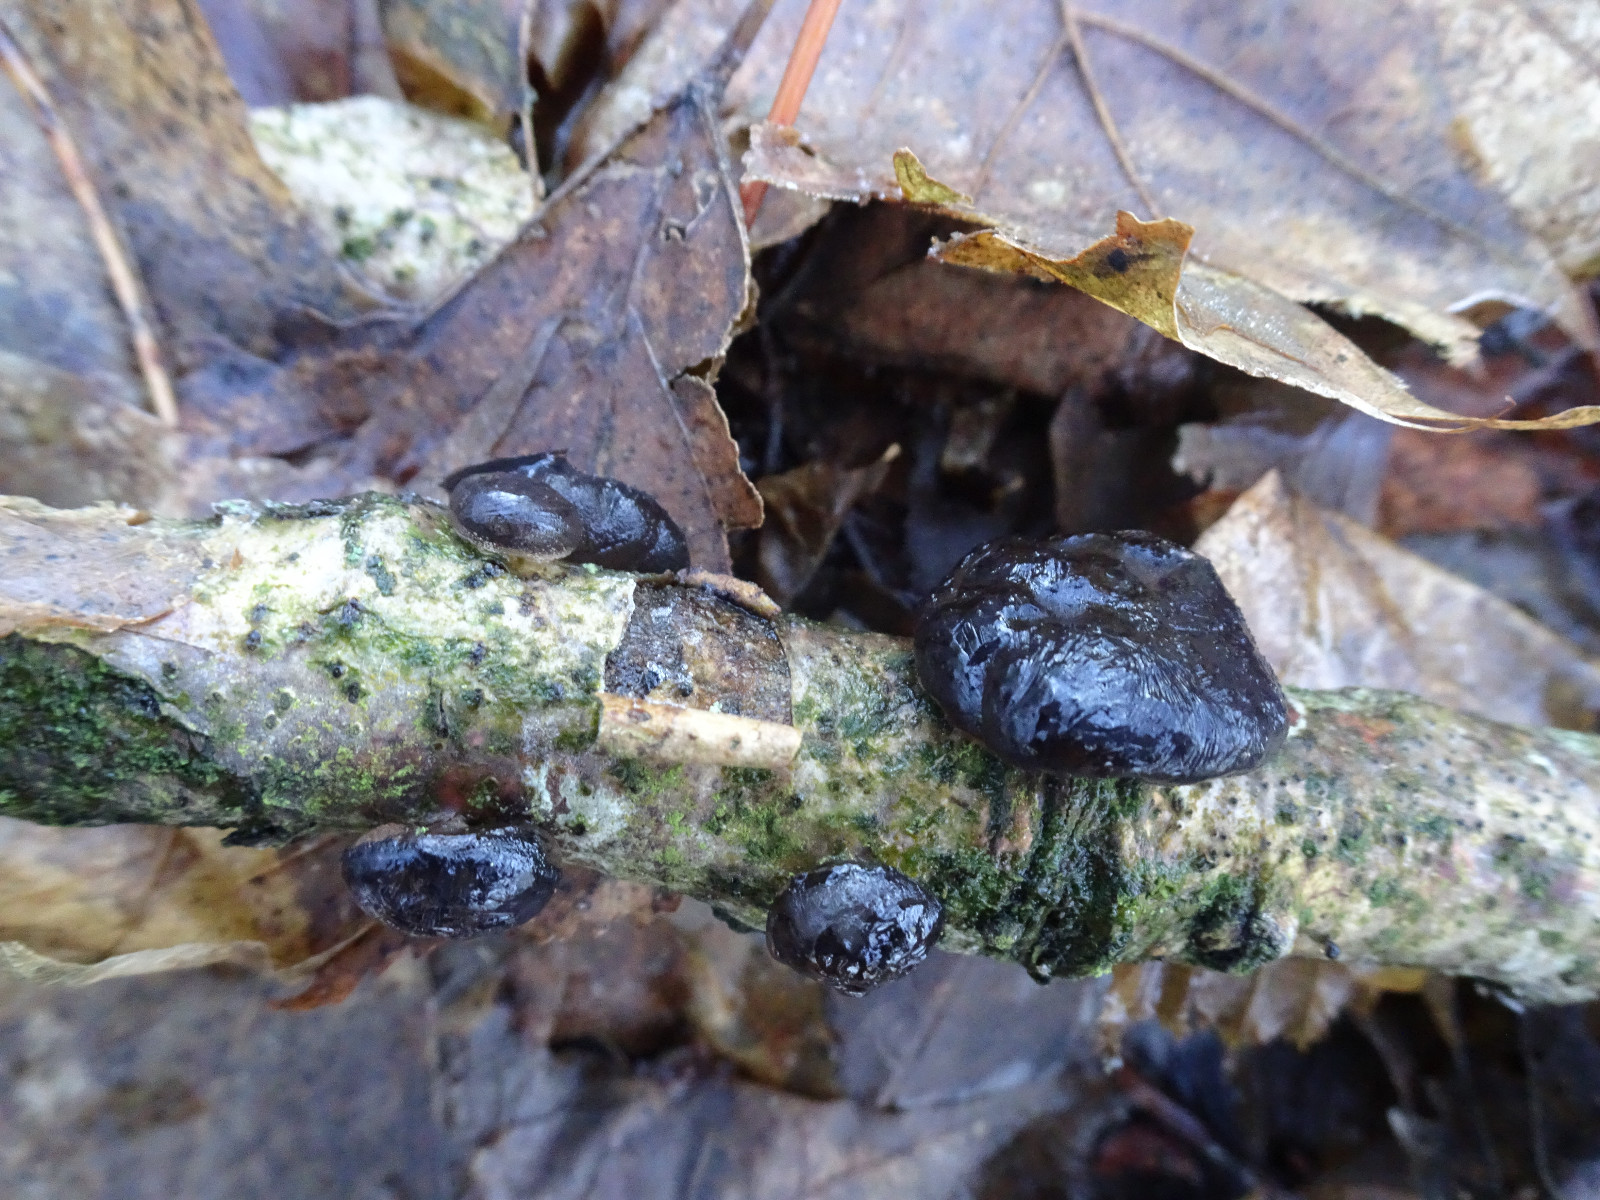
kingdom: Fungi
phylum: Basidiomycota
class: Agaricomycetes
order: Auriculariales
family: Auriculariaceae
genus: Exidia
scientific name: Exidia glandulosa
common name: ege-bævretop
